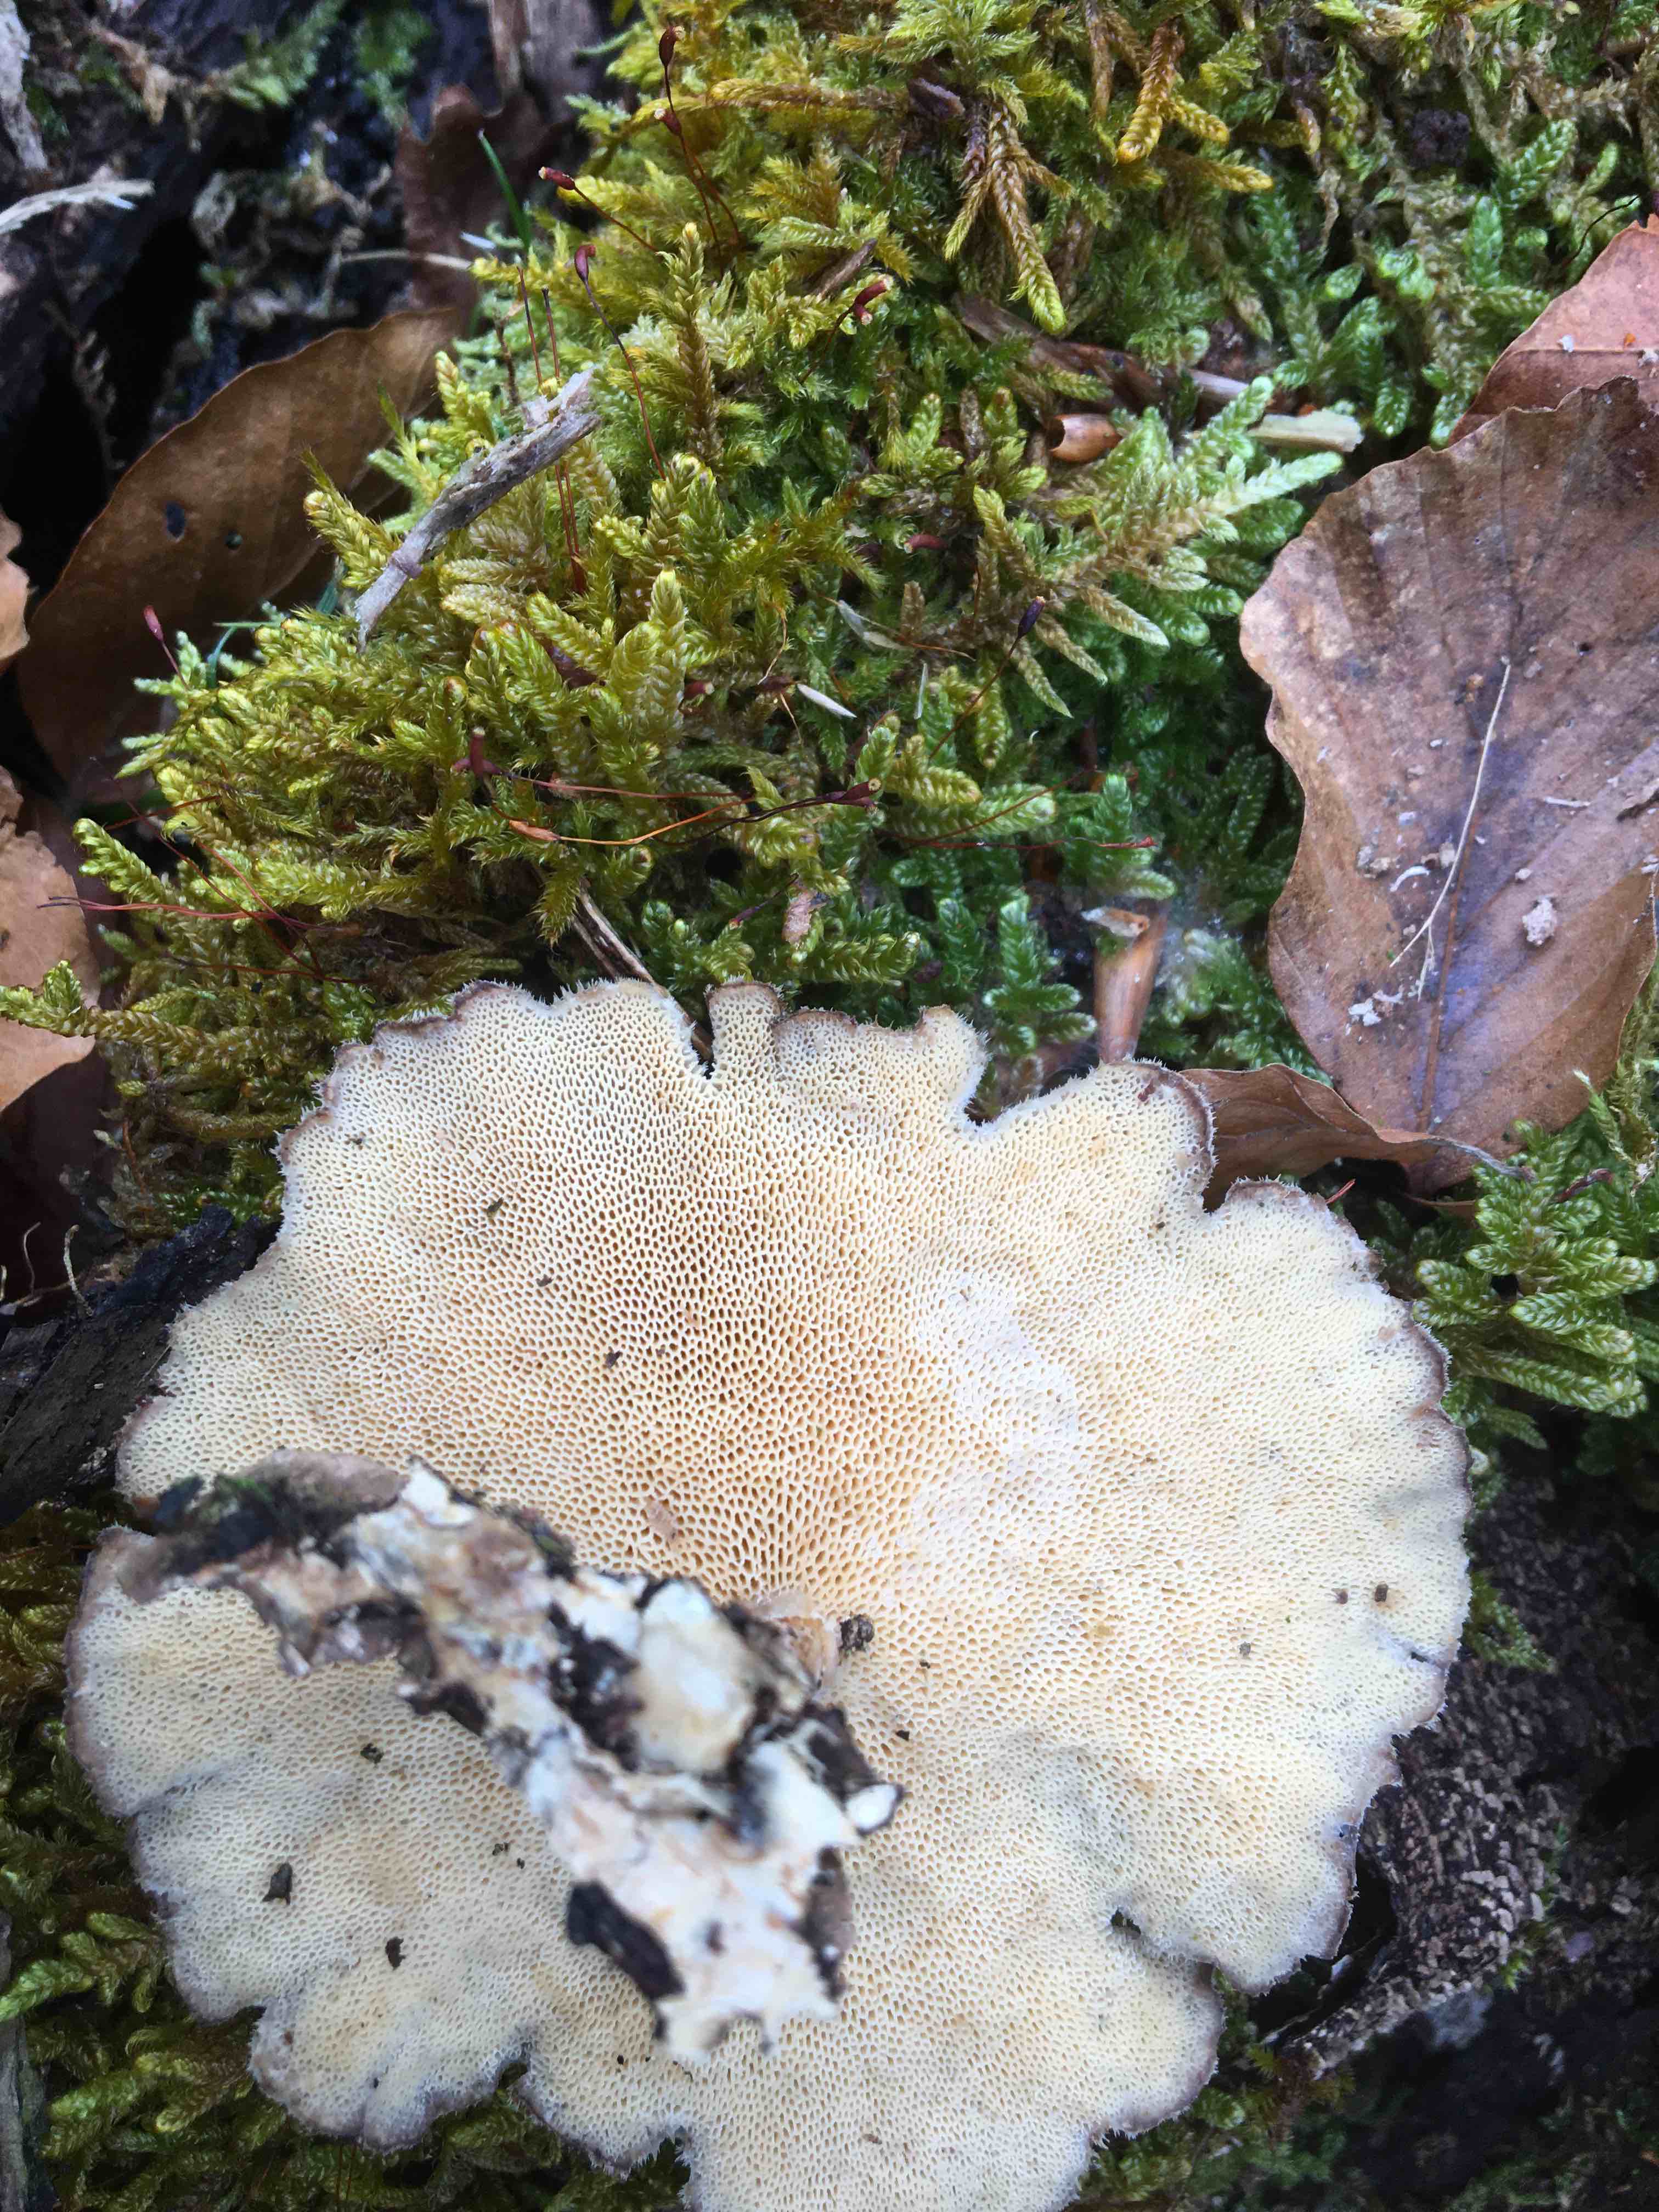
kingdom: Fungi
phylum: Basidiomycota
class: Agaricomycetes
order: Polyporales
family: Polyporaceae
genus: Lentinus
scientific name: Lentinus brumalis
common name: vinter-stilkporesvamp
